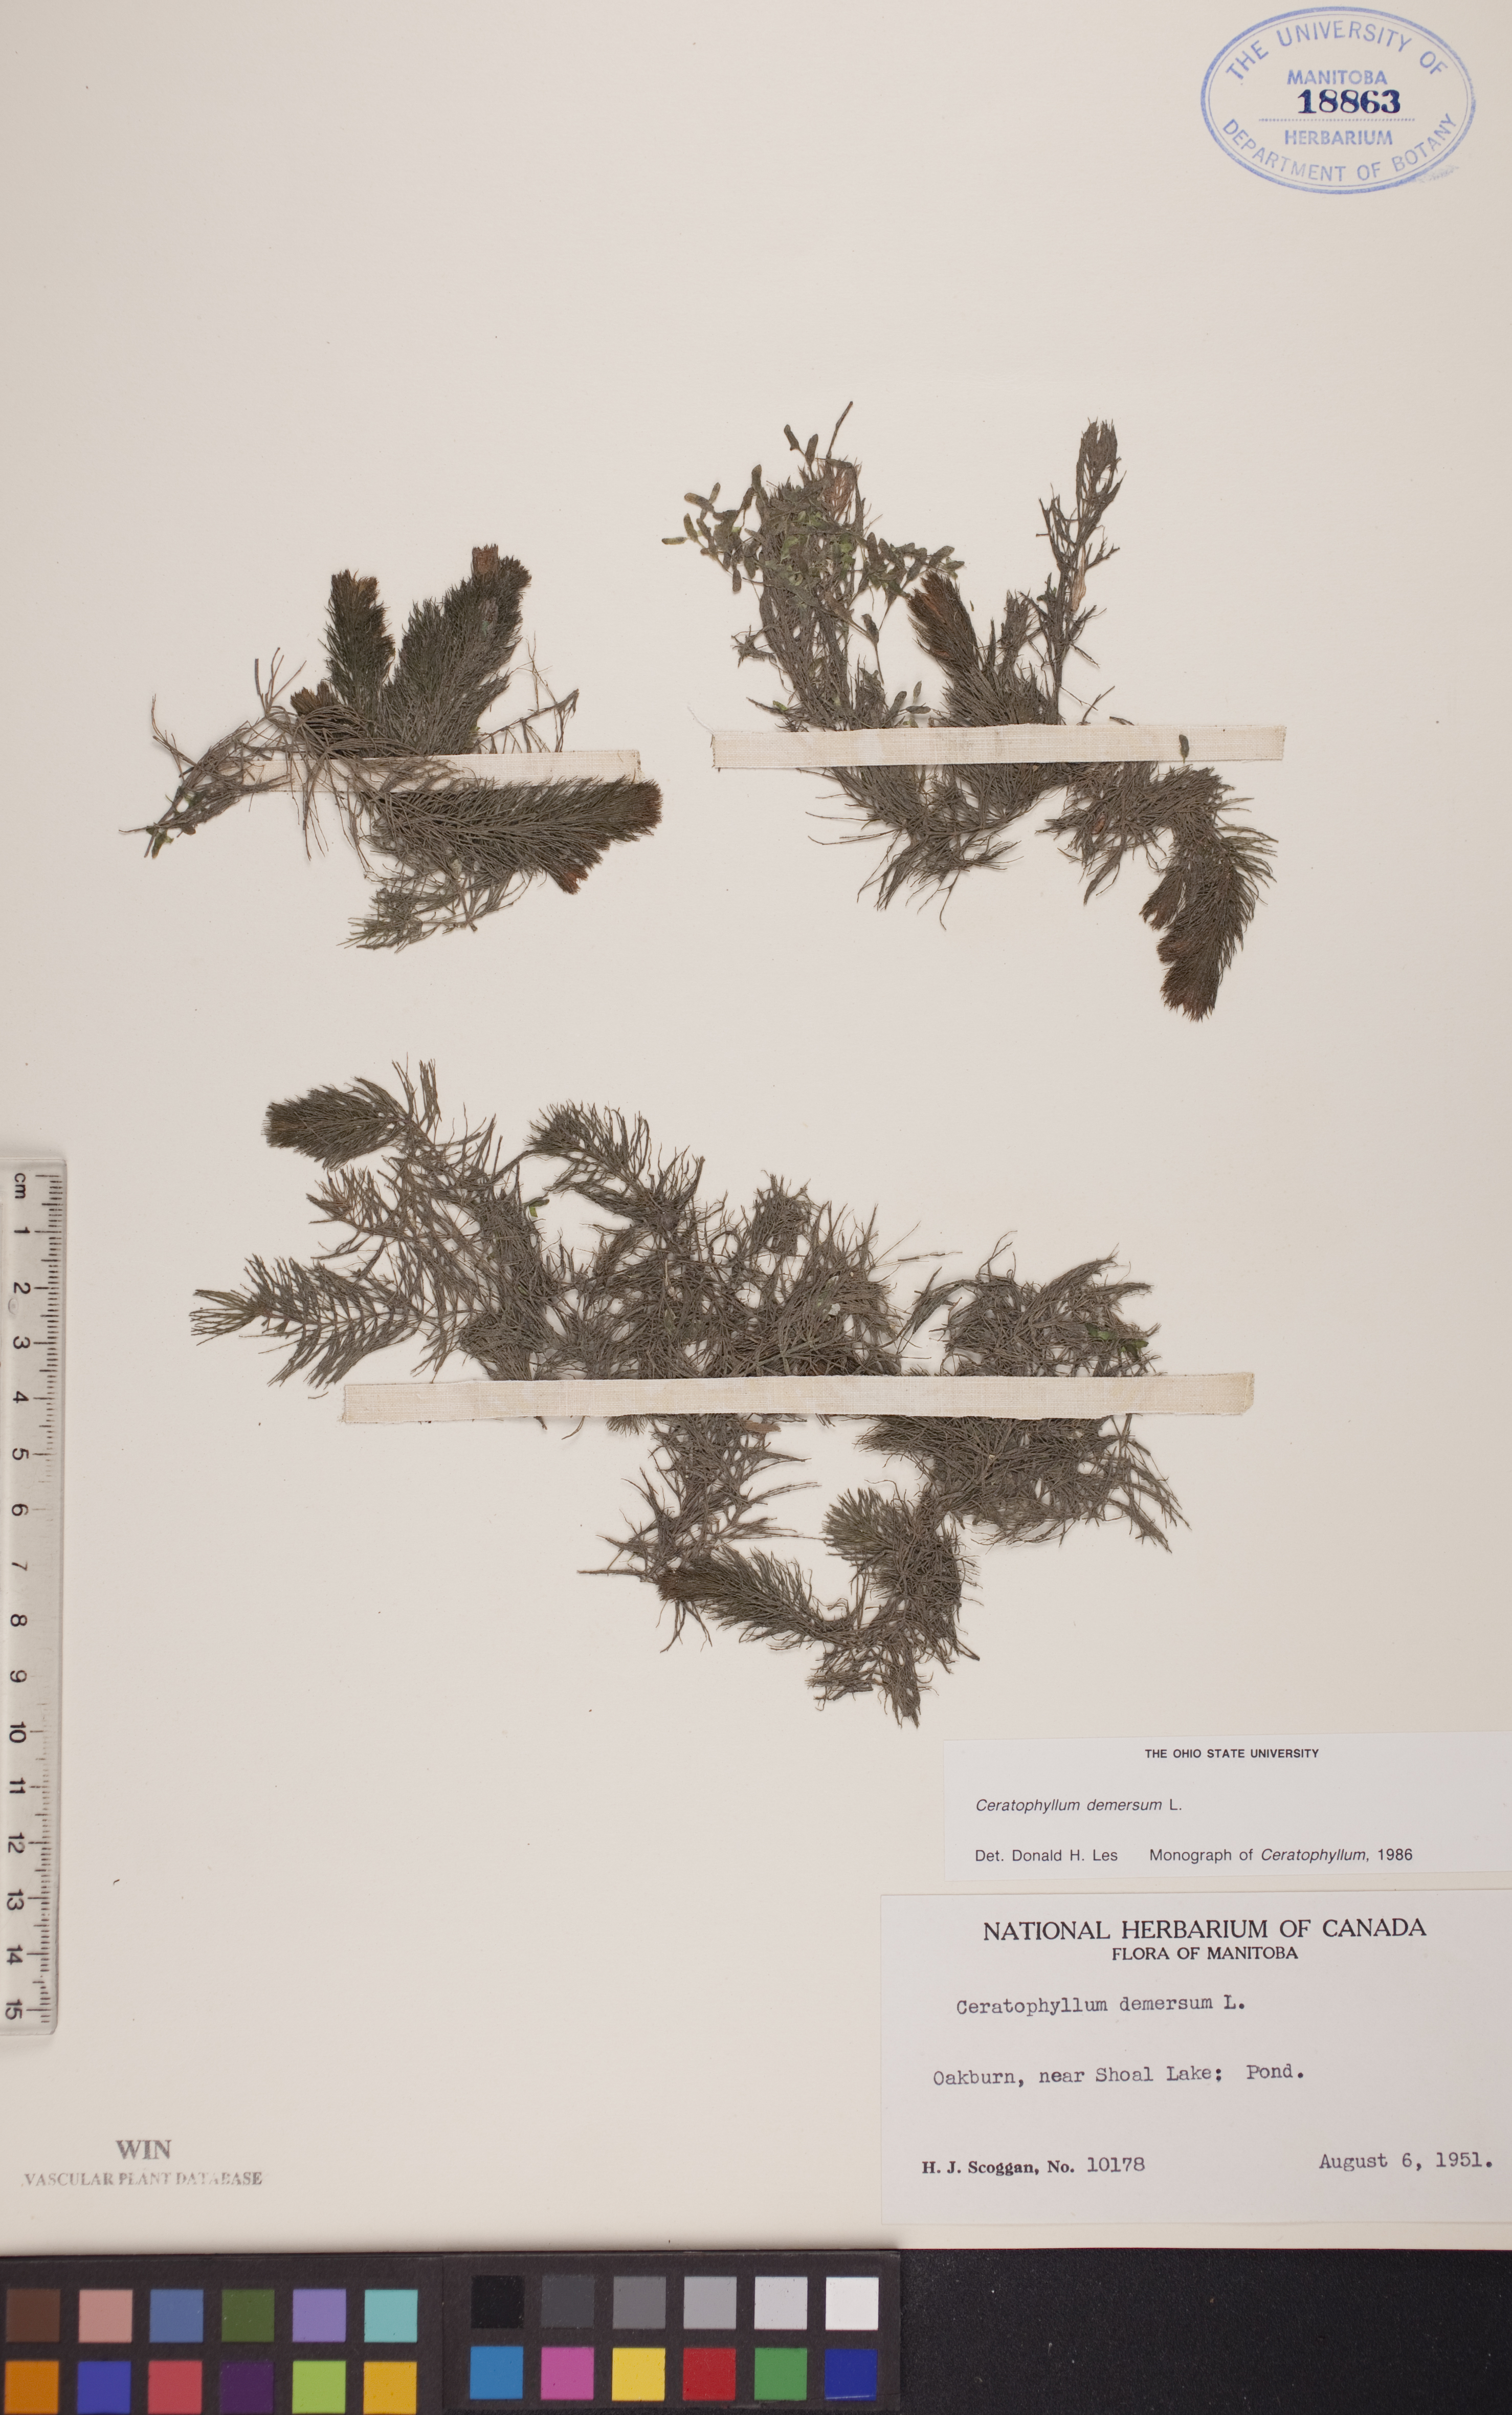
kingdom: Plantae
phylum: Tracheophyta
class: Magnoliopsida
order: Ceratophyllales
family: Ceratophyllaceae
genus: Ceratophyllum
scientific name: Ceratophyllum demersum
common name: Rigid hornwort
